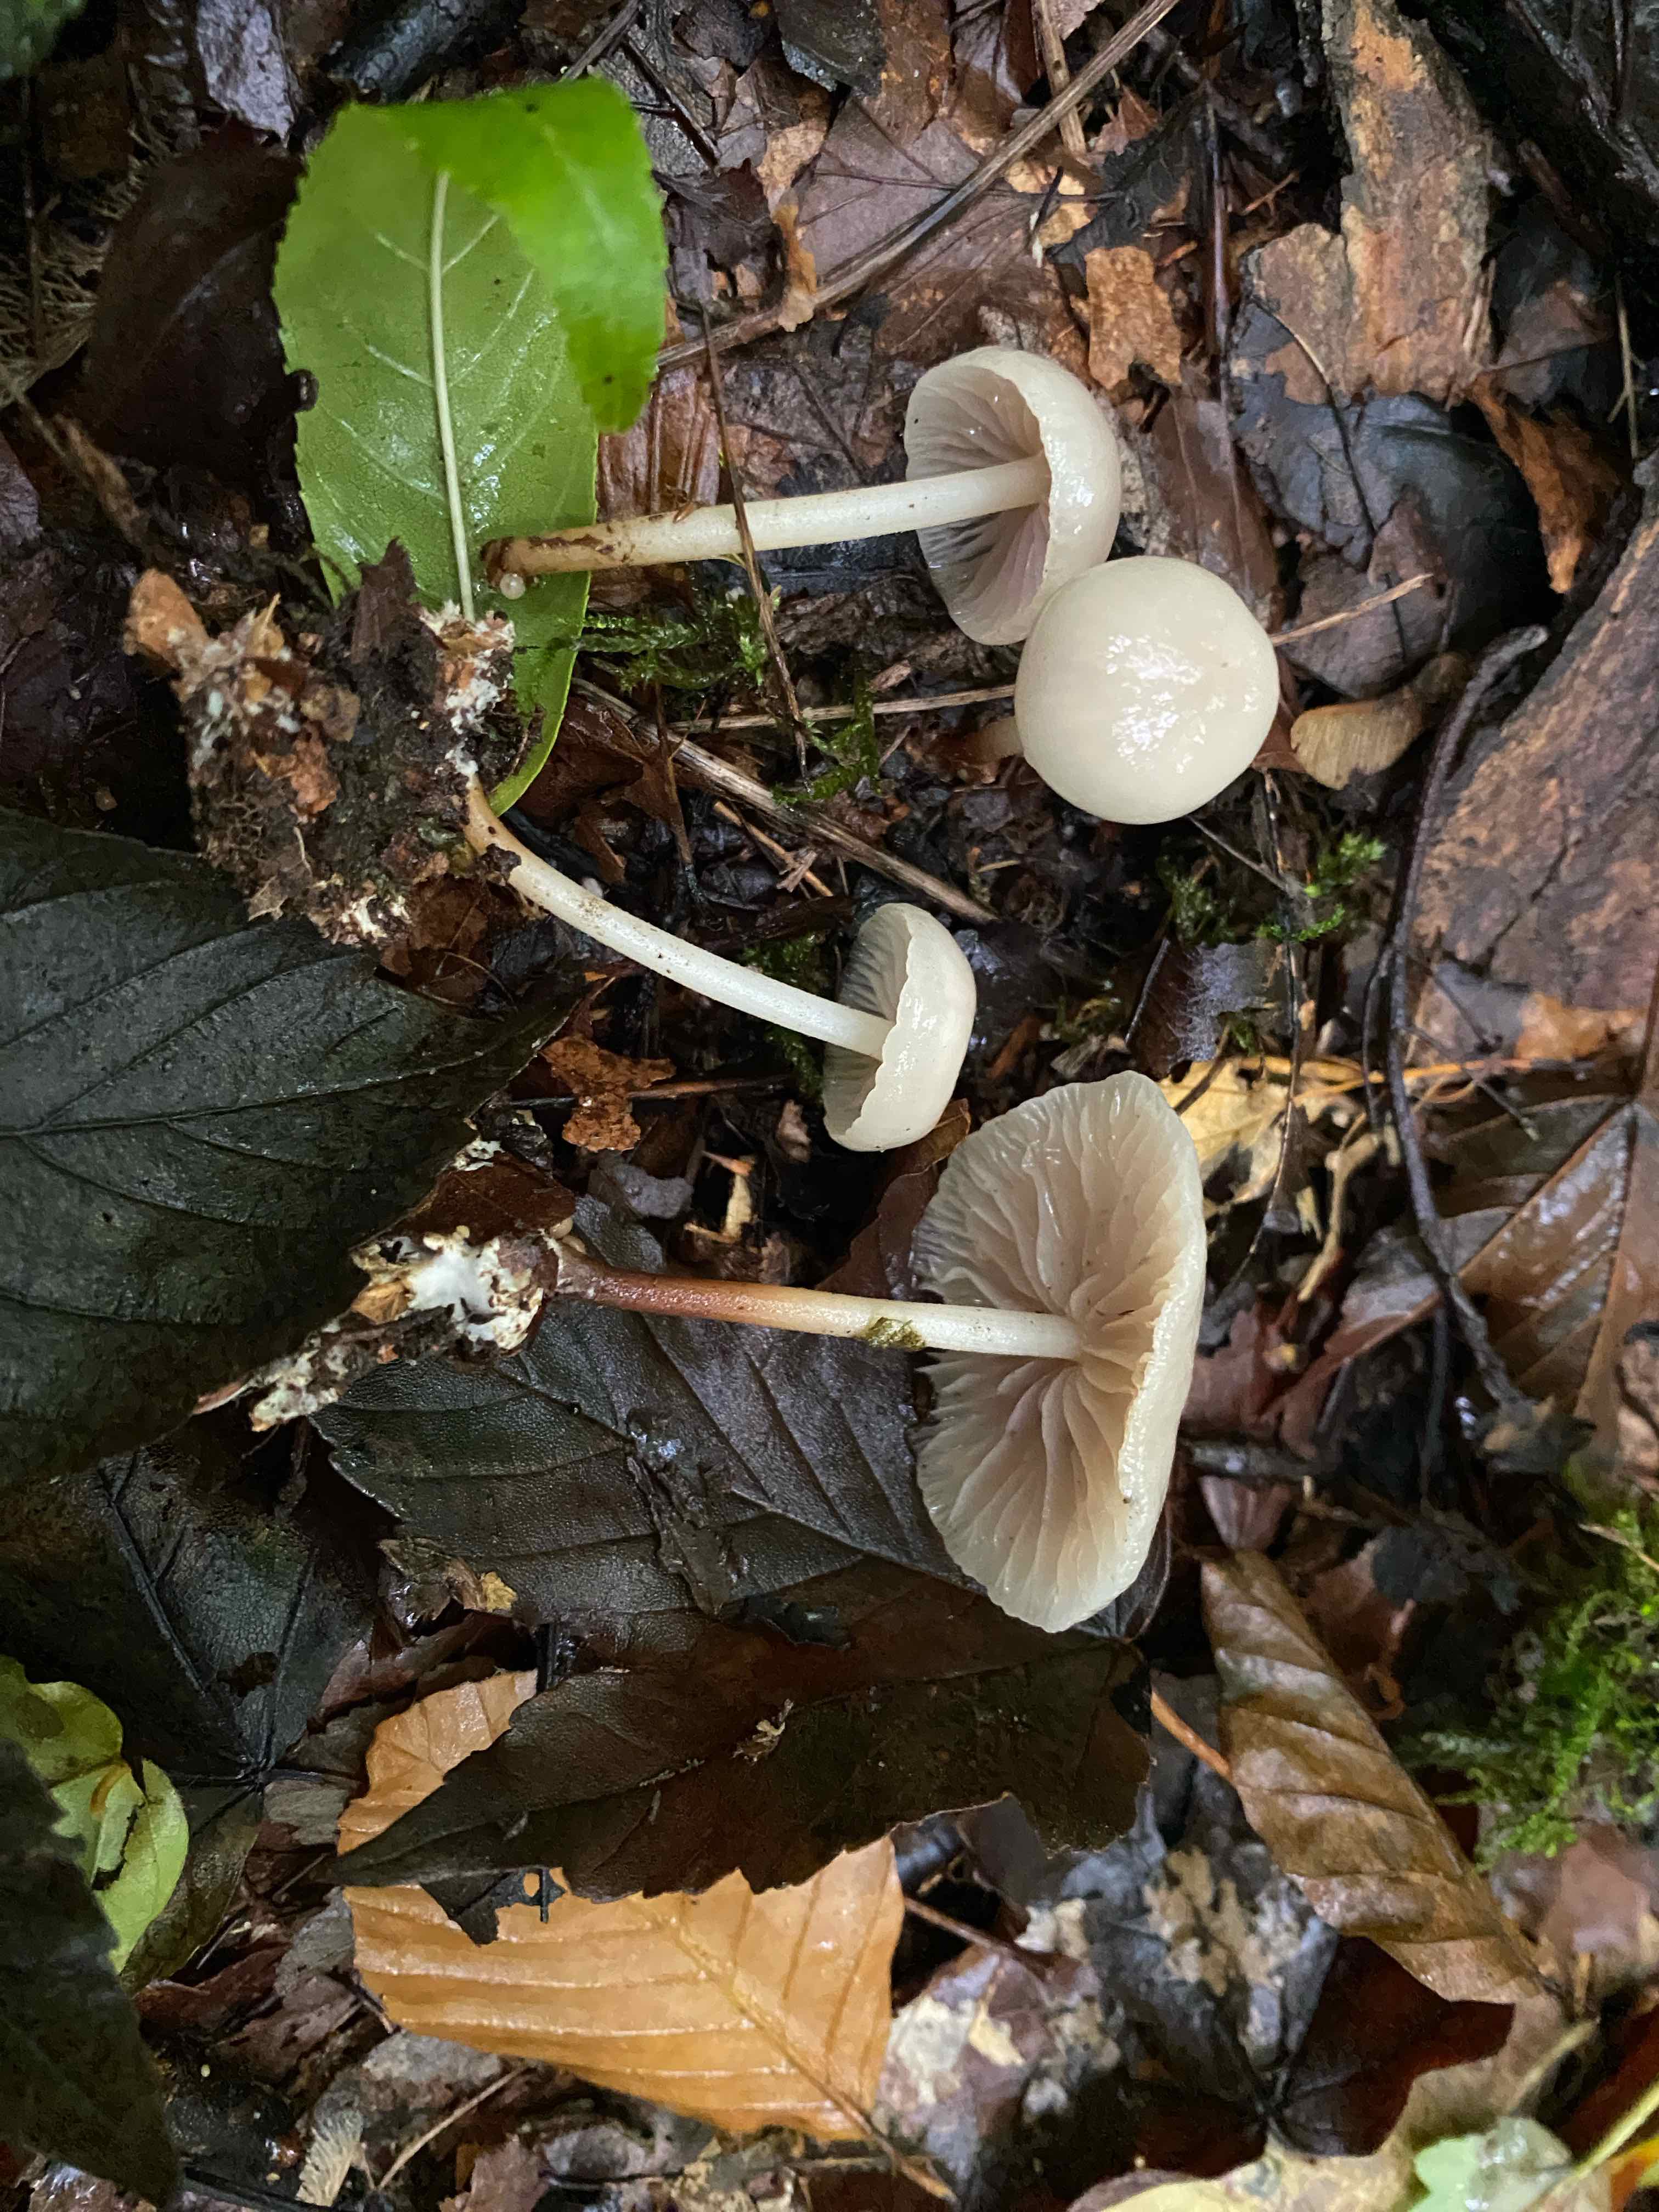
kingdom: Fungi
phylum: Basidiomycota
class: Agaricomycetes
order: Agaricales
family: Marasmiaceae
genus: Marasmius
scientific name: Marasmius wynneae
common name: hvælvet bruskhat
